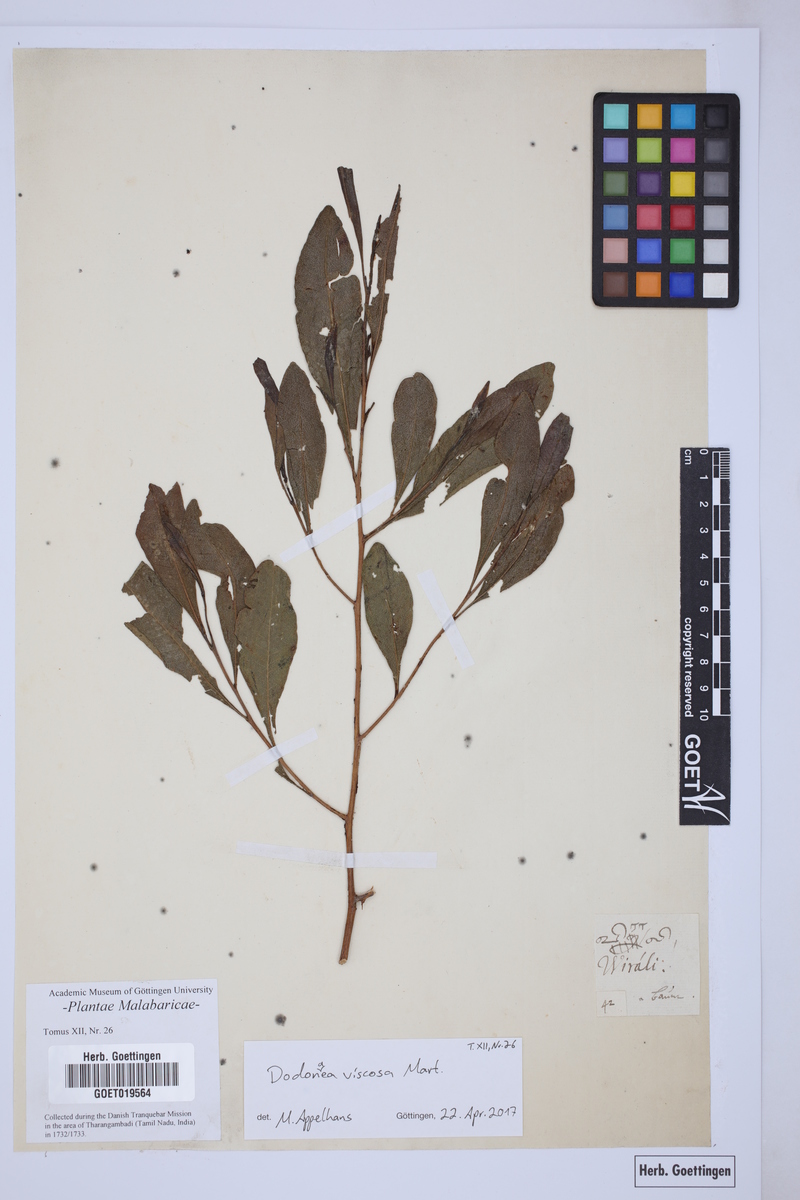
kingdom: Plantae
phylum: Tracheophyta
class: Magnoliopsida
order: Sapindales
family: Sapindaceae
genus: Dodonaea
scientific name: Dodonaea viscosa
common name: Hopbush
